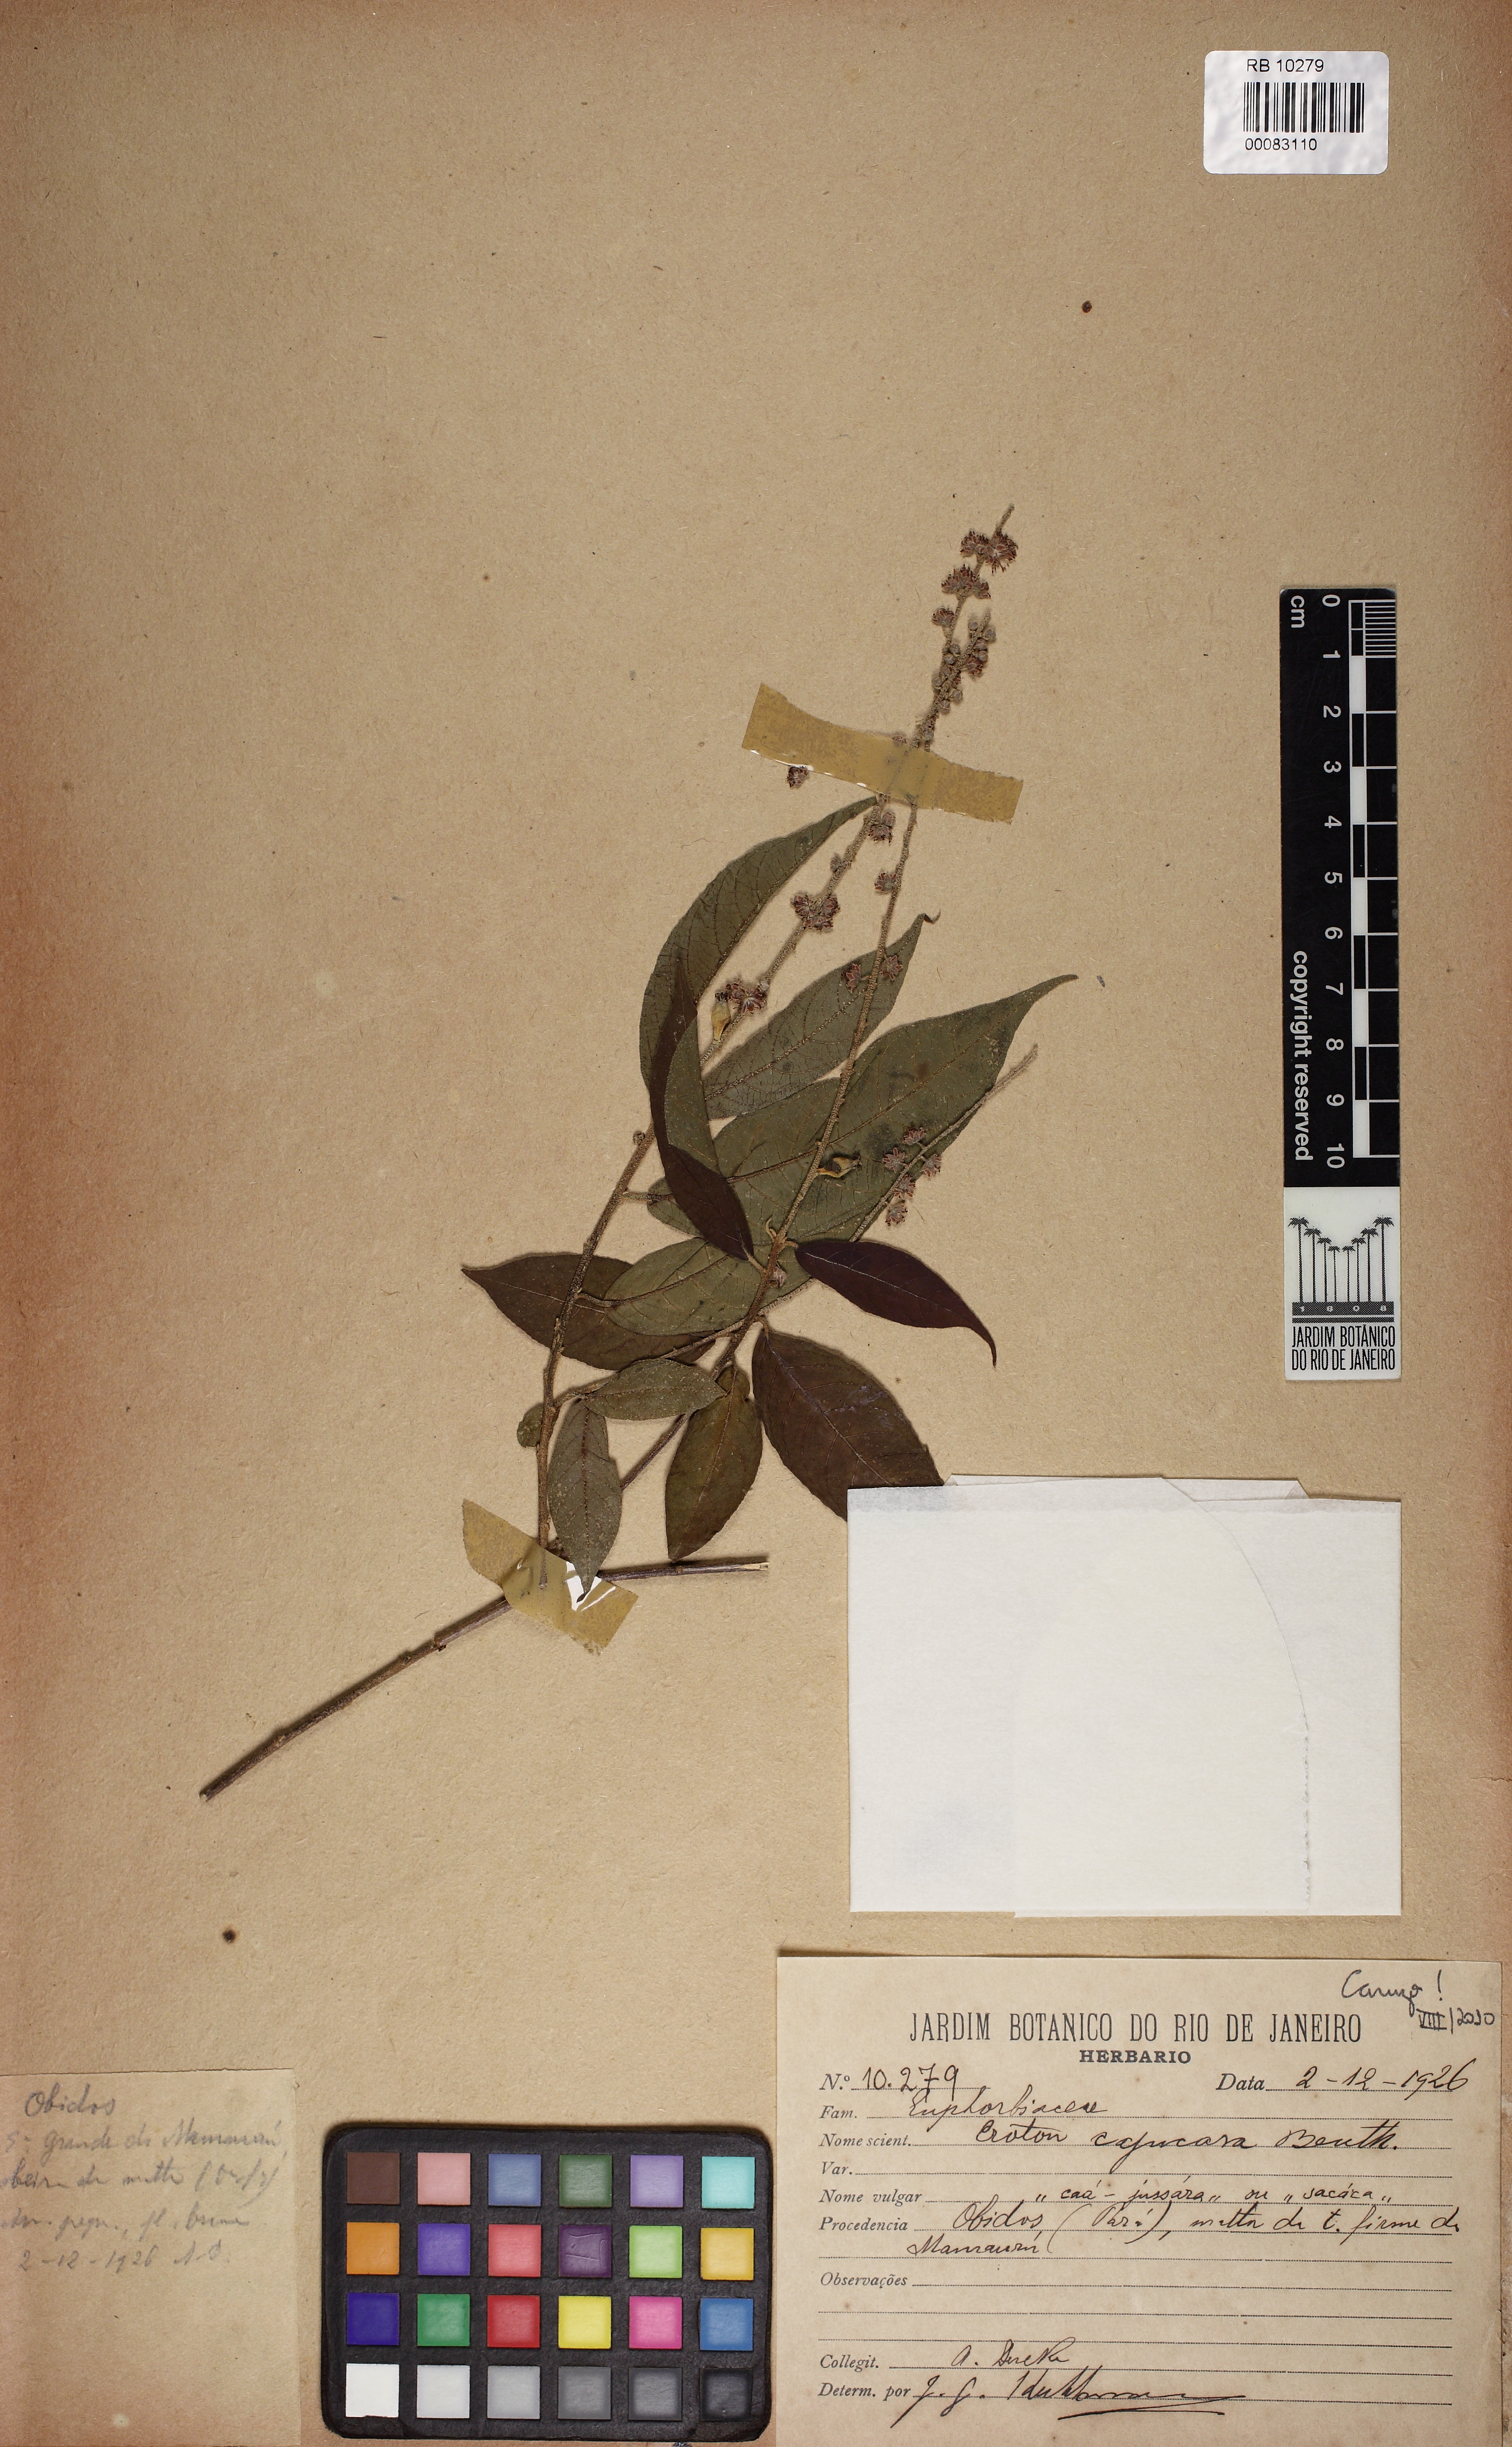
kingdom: Plantae
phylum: Tracheophyta
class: Magnoliopsida
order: Malpighiales
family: Euphorbiaceae
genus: Croton
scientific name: Croton cajucara
